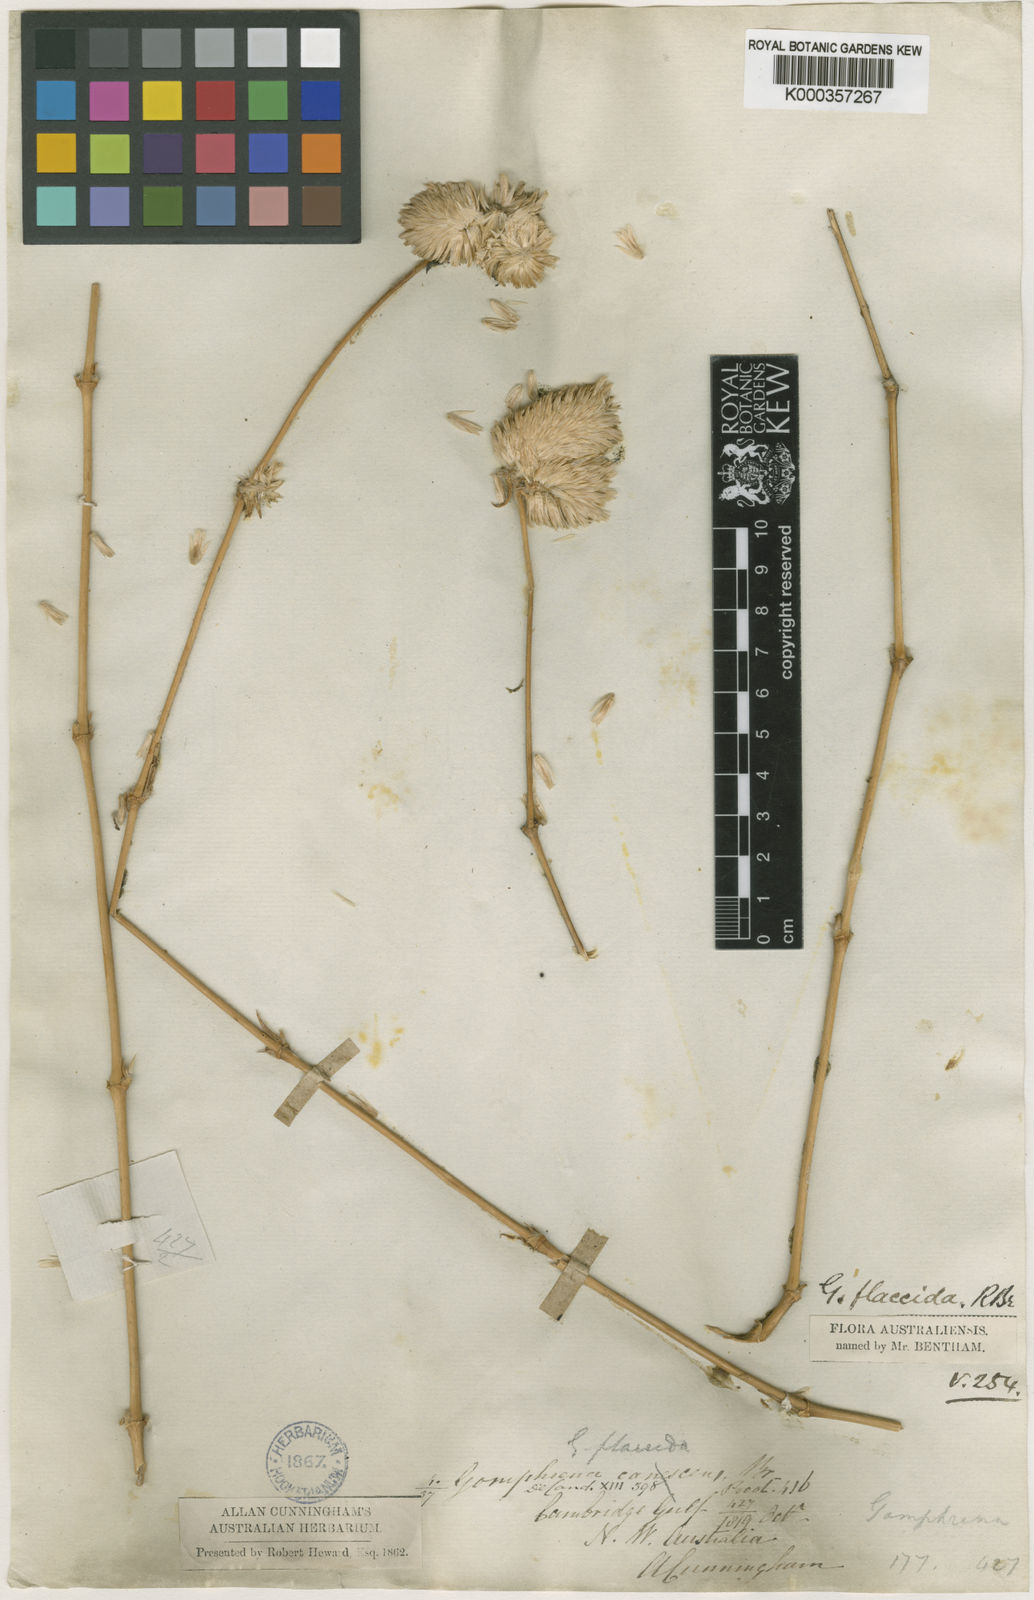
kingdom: Plantae
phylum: Tracheophyta
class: Magnoliopsida
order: Caryophyllales
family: Amaranthaceae
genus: Gomphrena
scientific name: Gomphrena flaccida
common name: Gomphrena-weed
